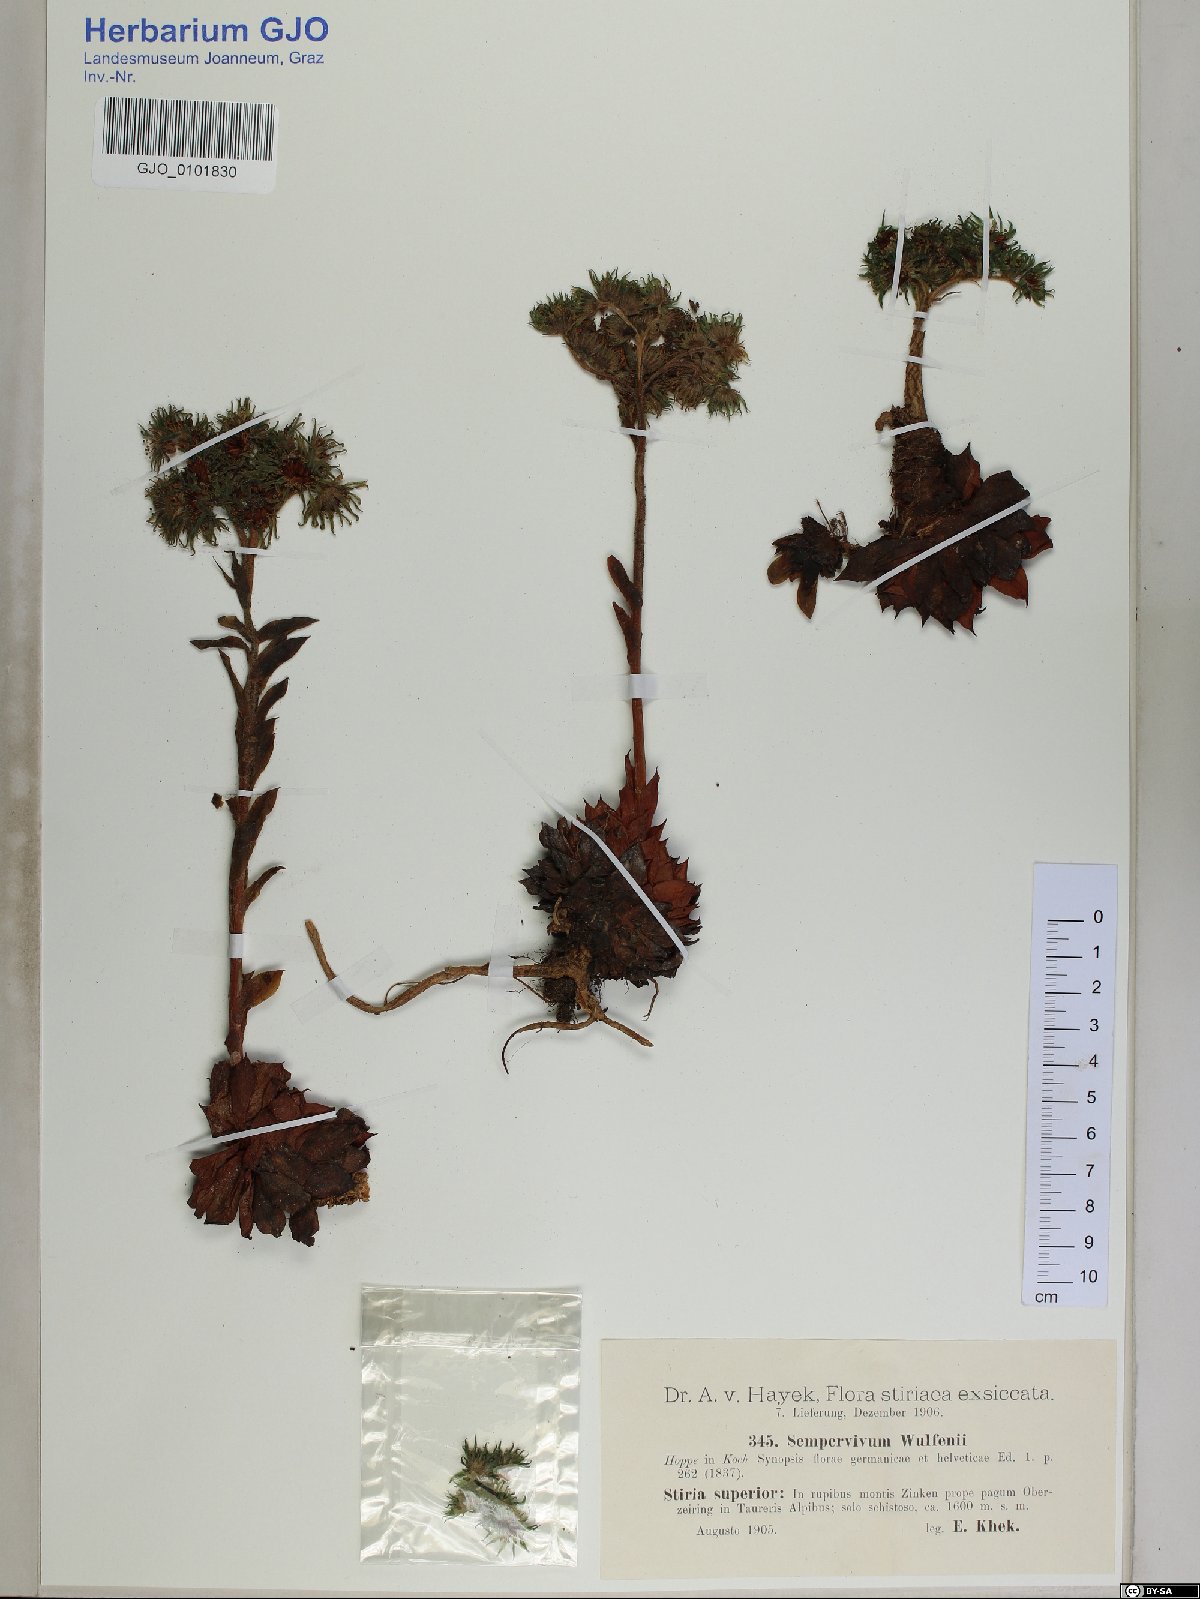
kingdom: Plantae
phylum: Tracheophyta
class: Magnoliopsida
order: Saxifragales
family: Crassulaceae
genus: Sempervivum
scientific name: Sempervivum wulfenii
